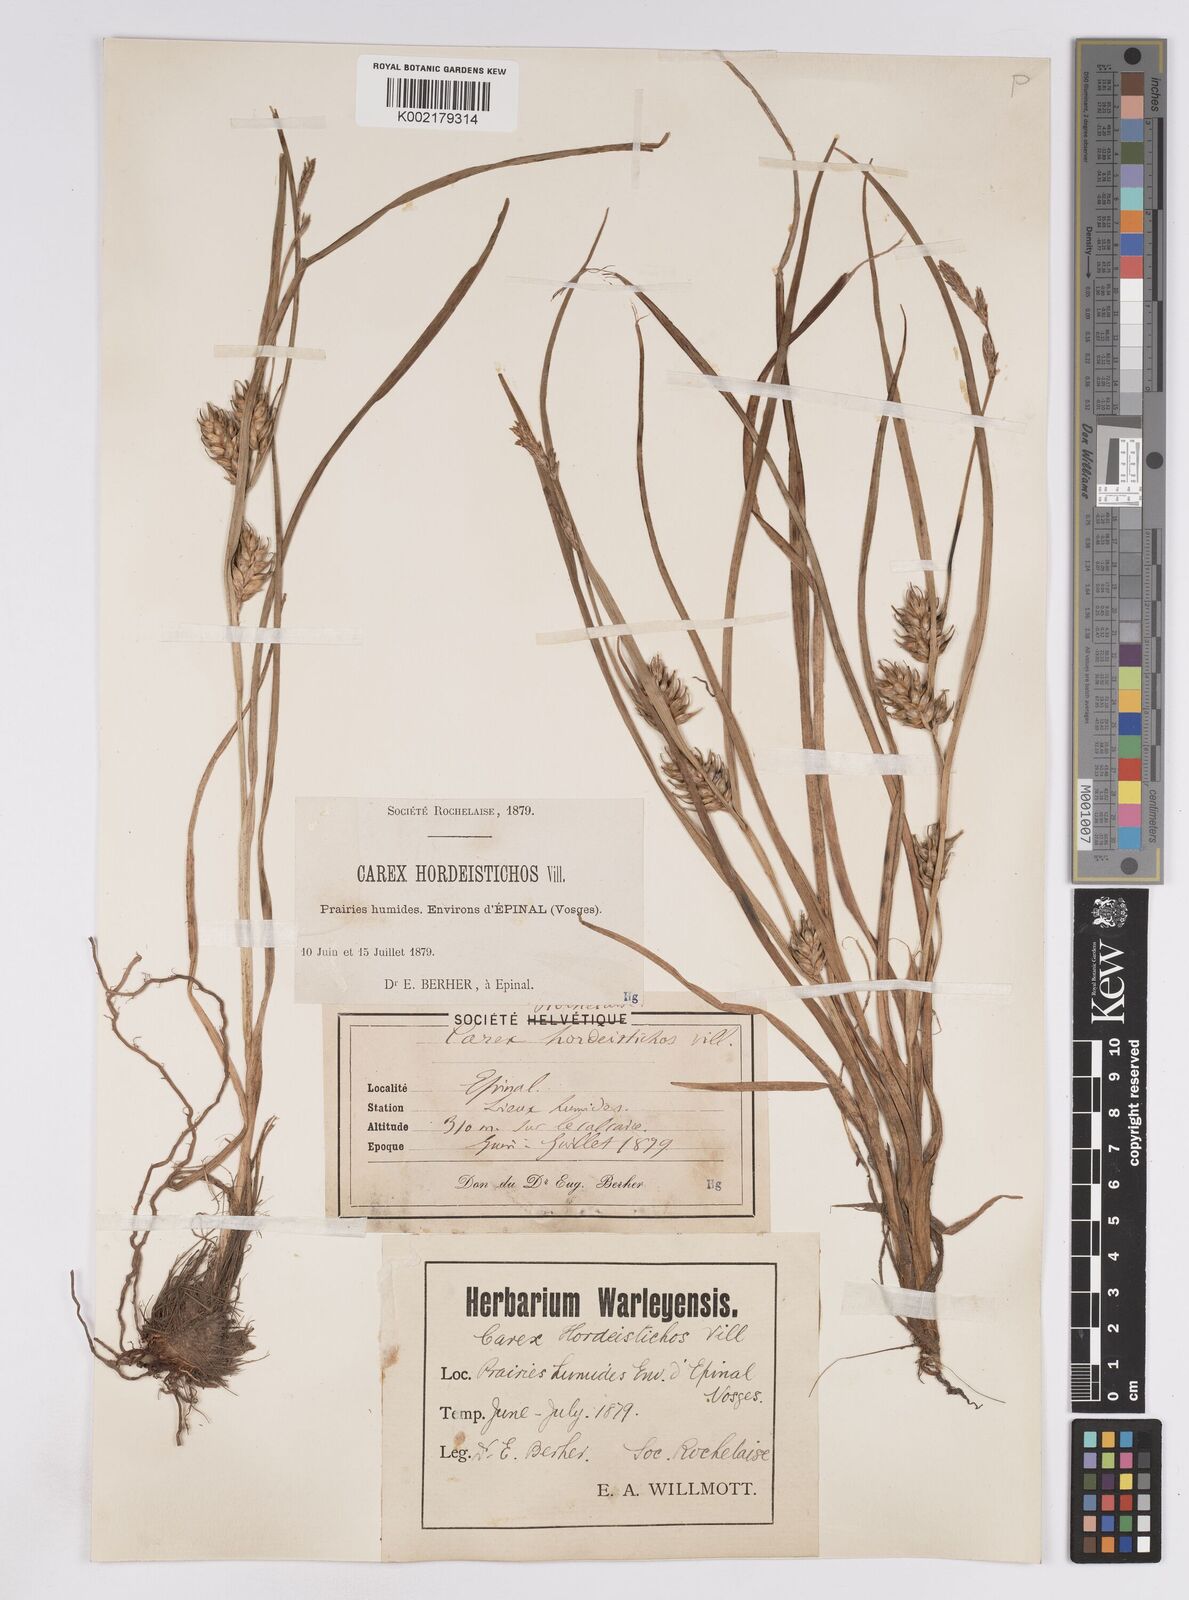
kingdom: Plantae
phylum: Tracheophyta
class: Liliopsida
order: Poales
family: Cyperaceae
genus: Carex
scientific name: Carex hordeistichos
